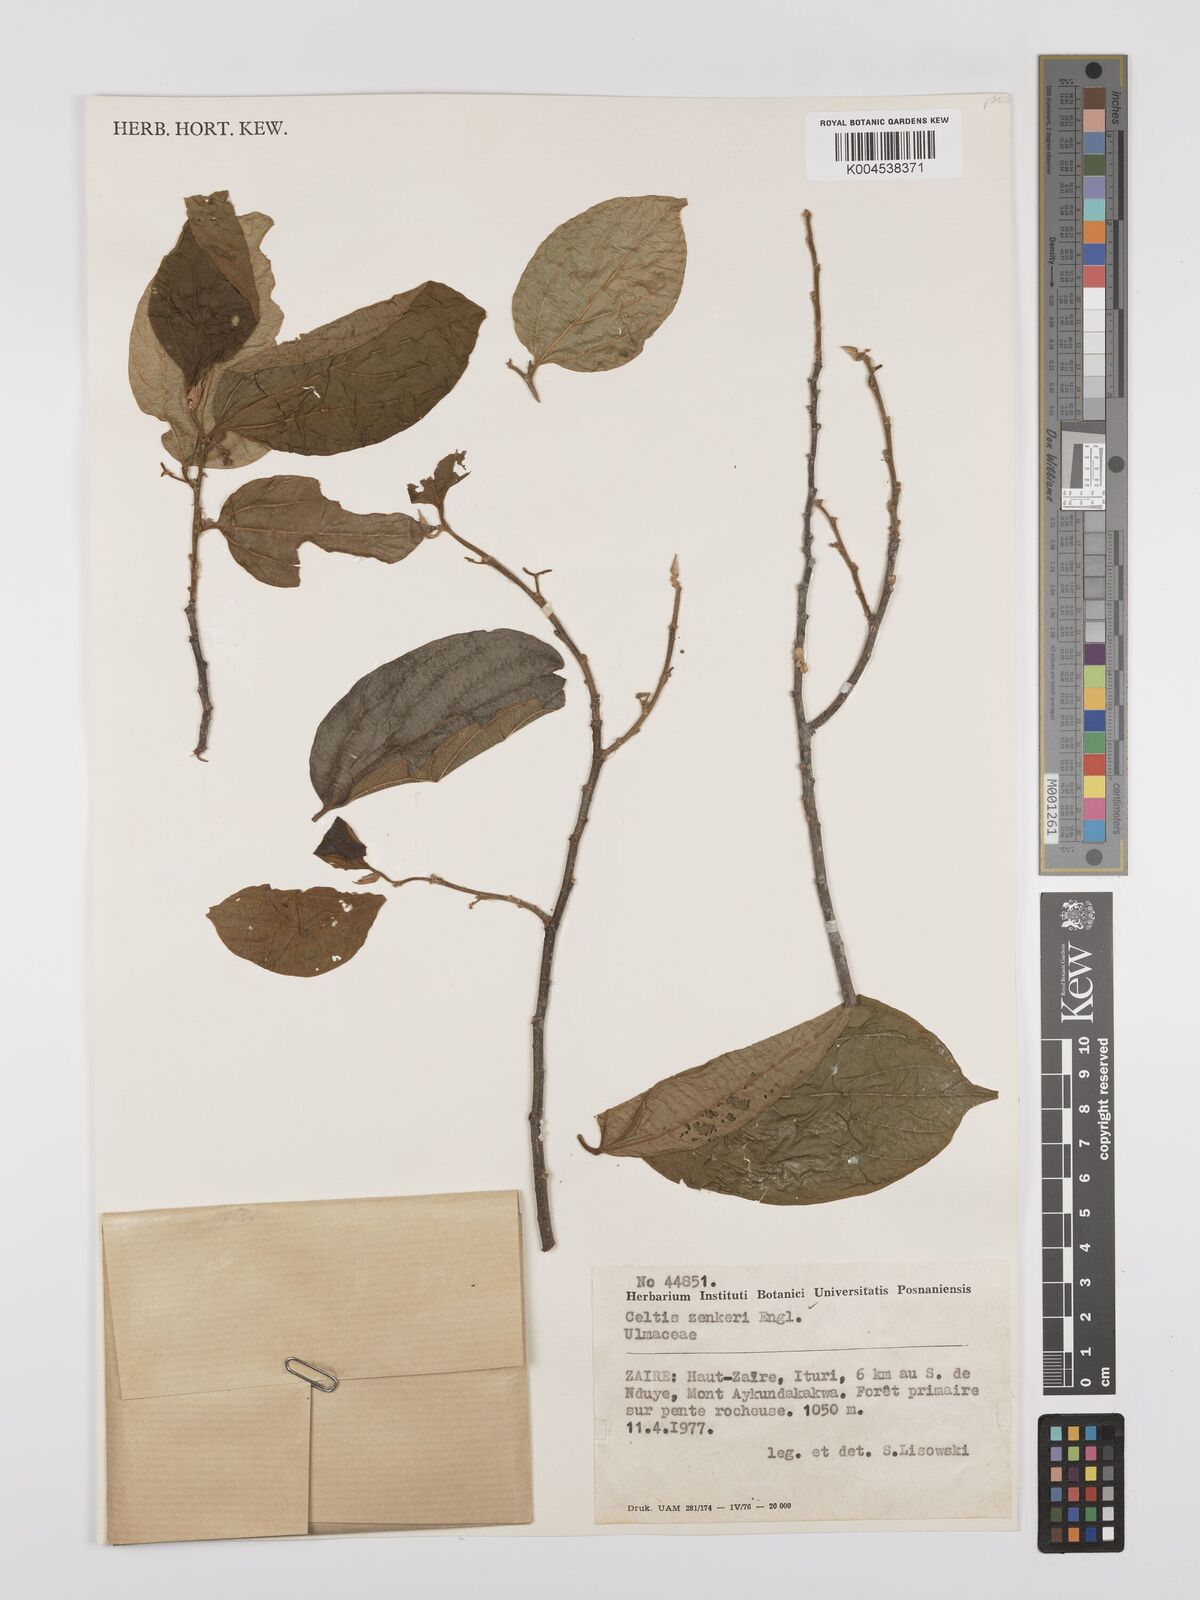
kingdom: Plantae
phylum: Tracheophyta
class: Magnoliopsida
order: Rosales
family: Cannabaceae
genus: Celtis
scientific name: Celtis zenkeri
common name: African celtis
